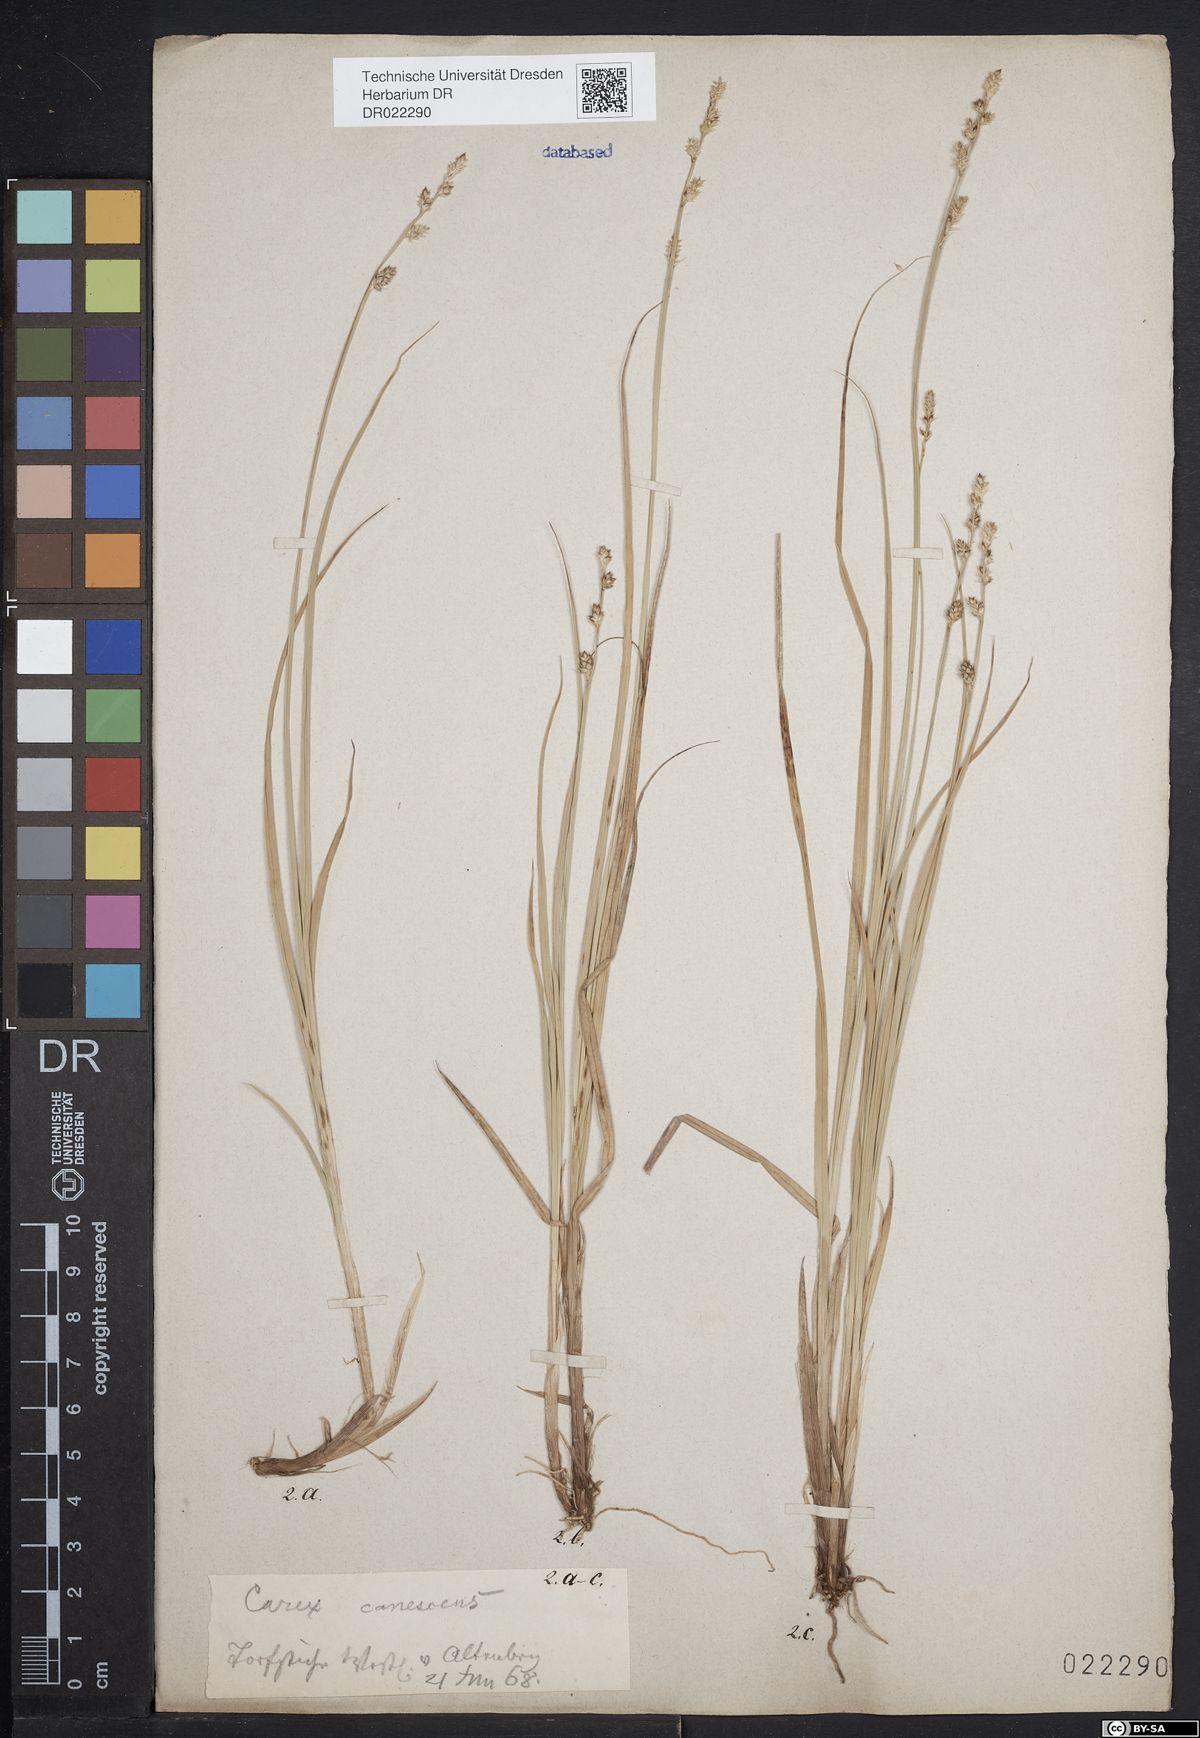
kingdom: Plantae
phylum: Tracheophyta
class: Liliopsida
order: Poales
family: Cyperaceae
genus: Carex
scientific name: Carex canescens
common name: White sedge
